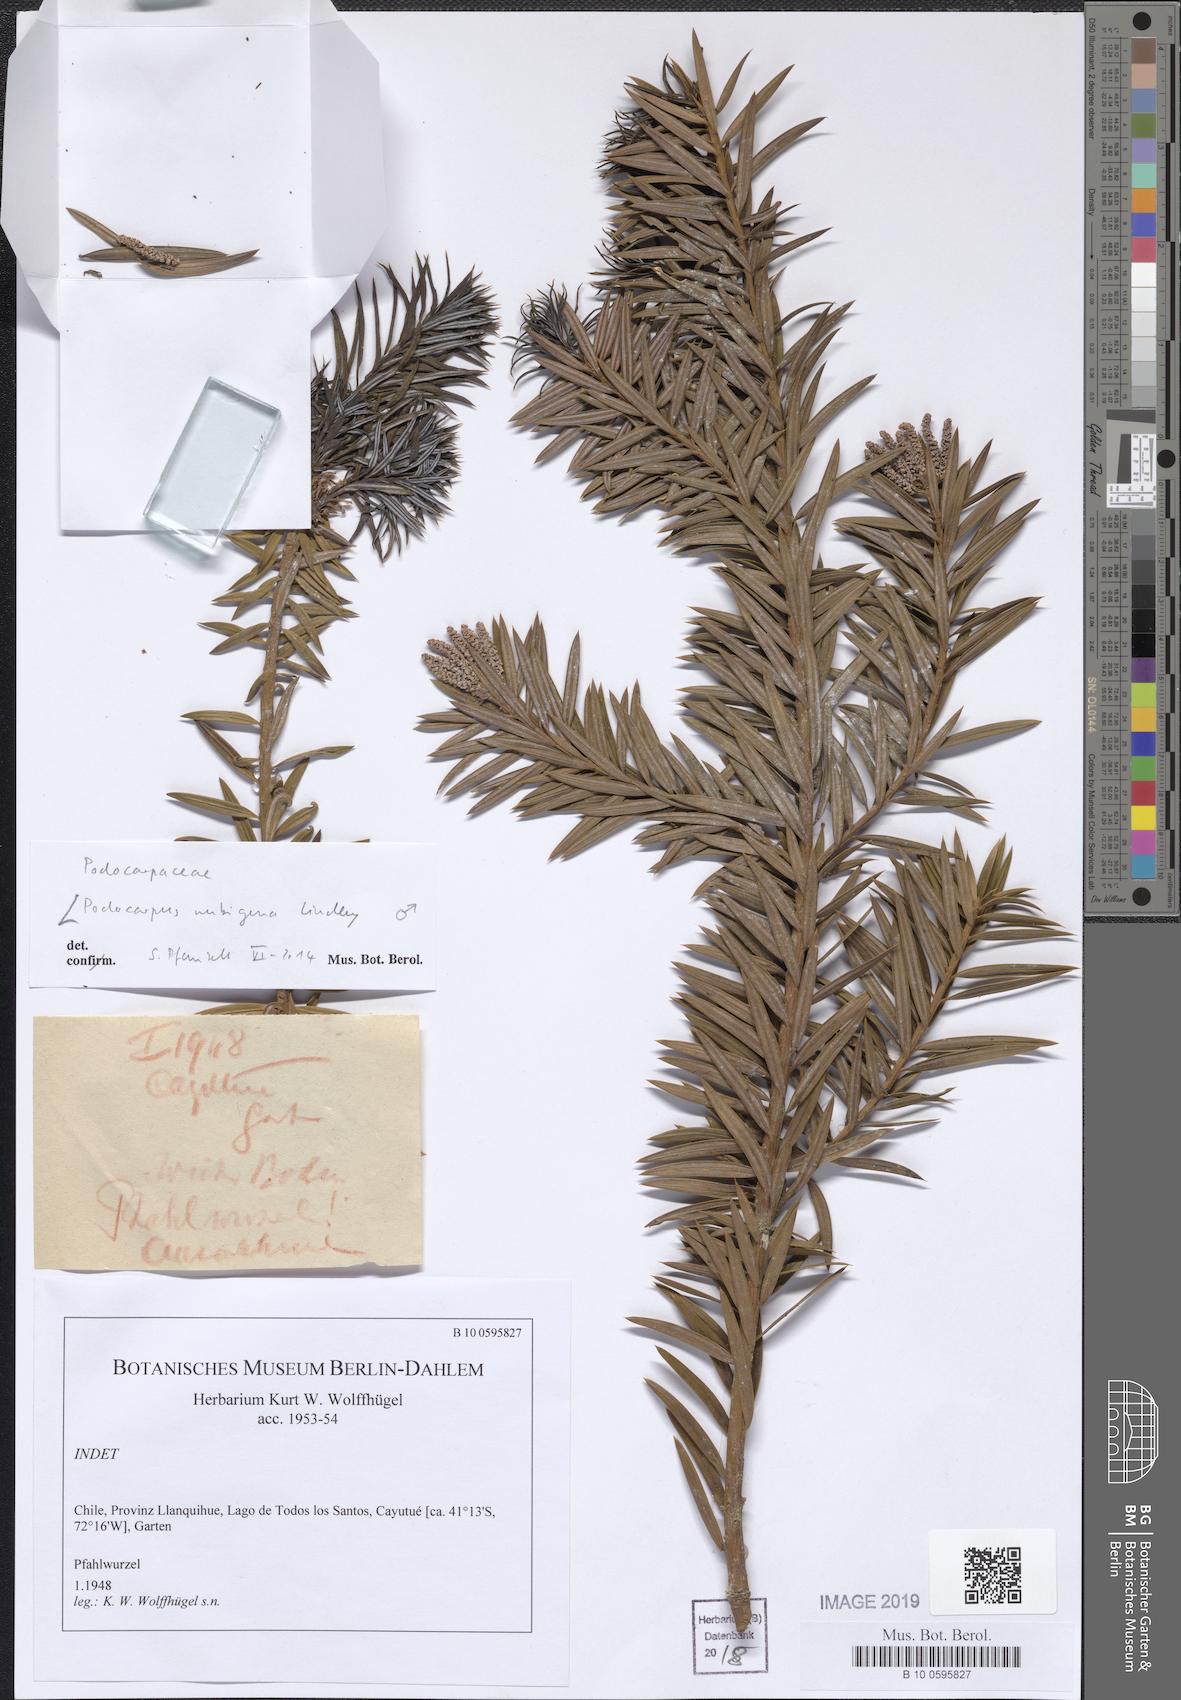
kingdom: Plantae
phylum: Tracheophyta
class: Pinopsida
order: Pinales
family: Podocarpaceae
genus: Podocarpus
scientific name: Podocarpus nubigenus
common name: Cloud podocarp
